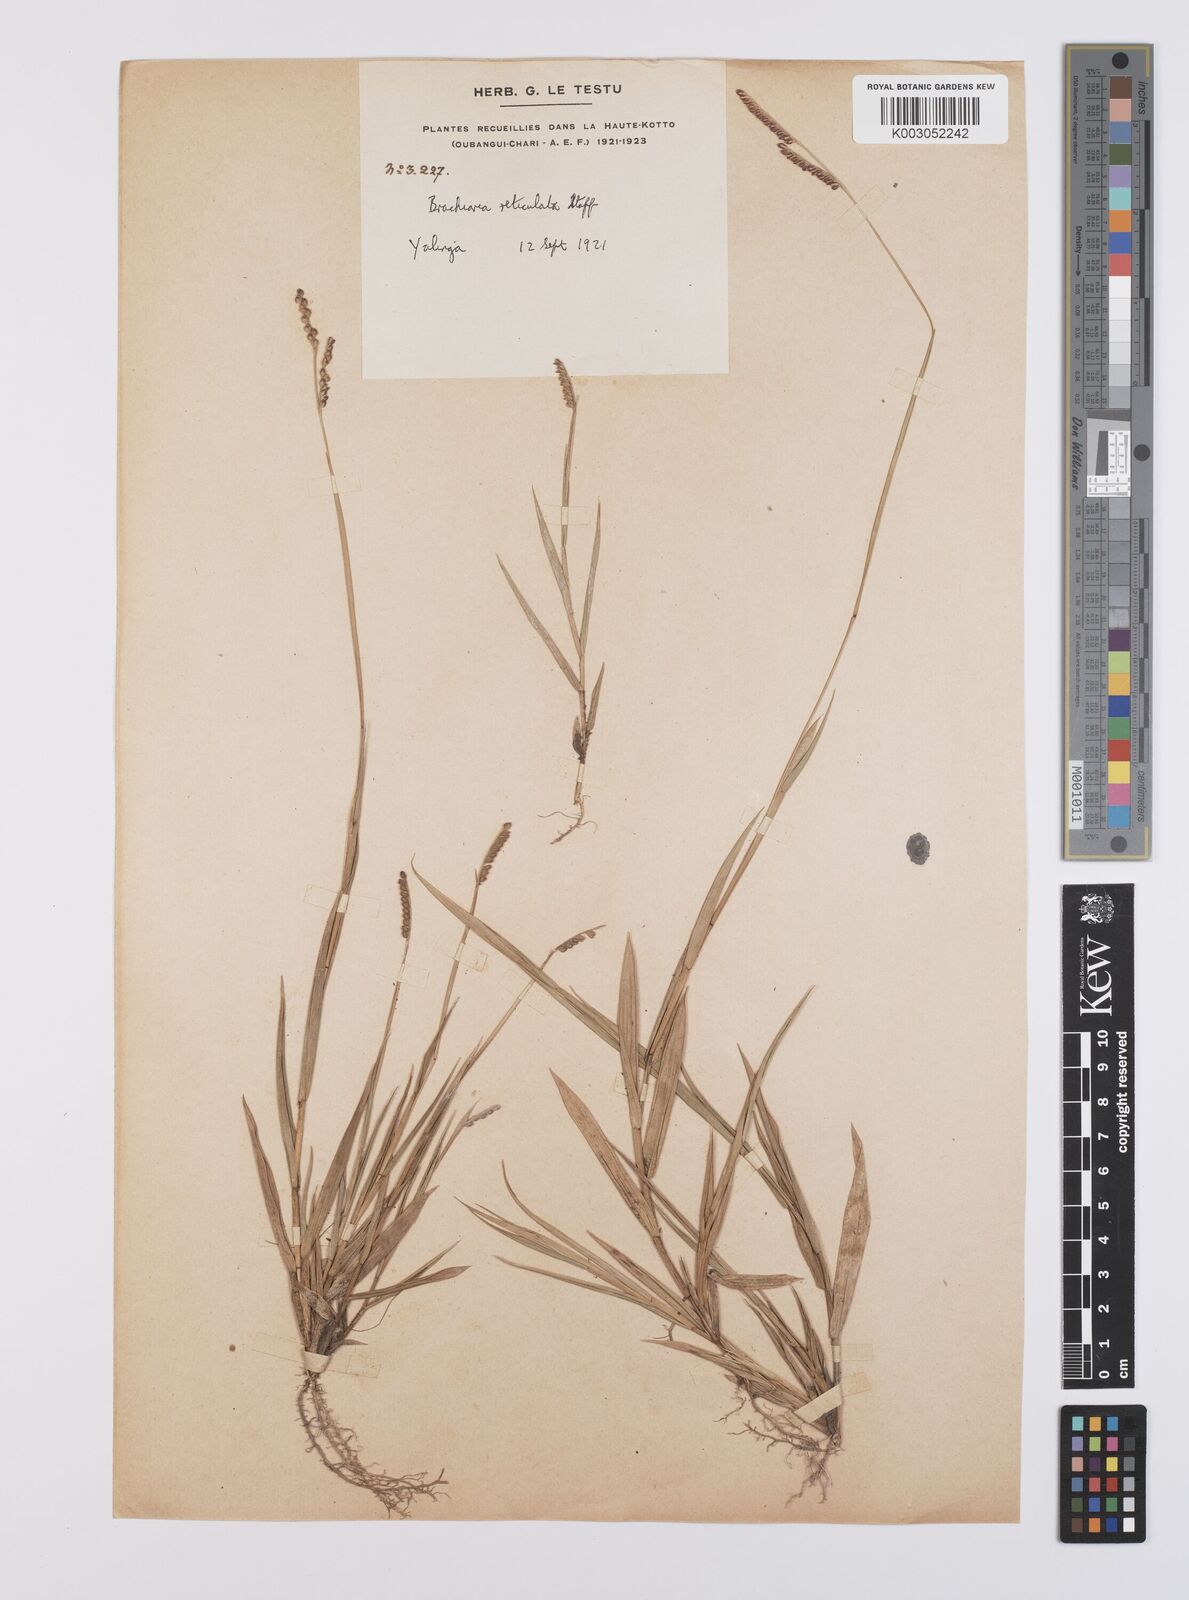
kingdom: Plantae
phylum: Tracheophyta
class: Liliopsida
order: Poales
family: Poaceae
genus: Urochloa
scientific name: Urochloa reticulata
